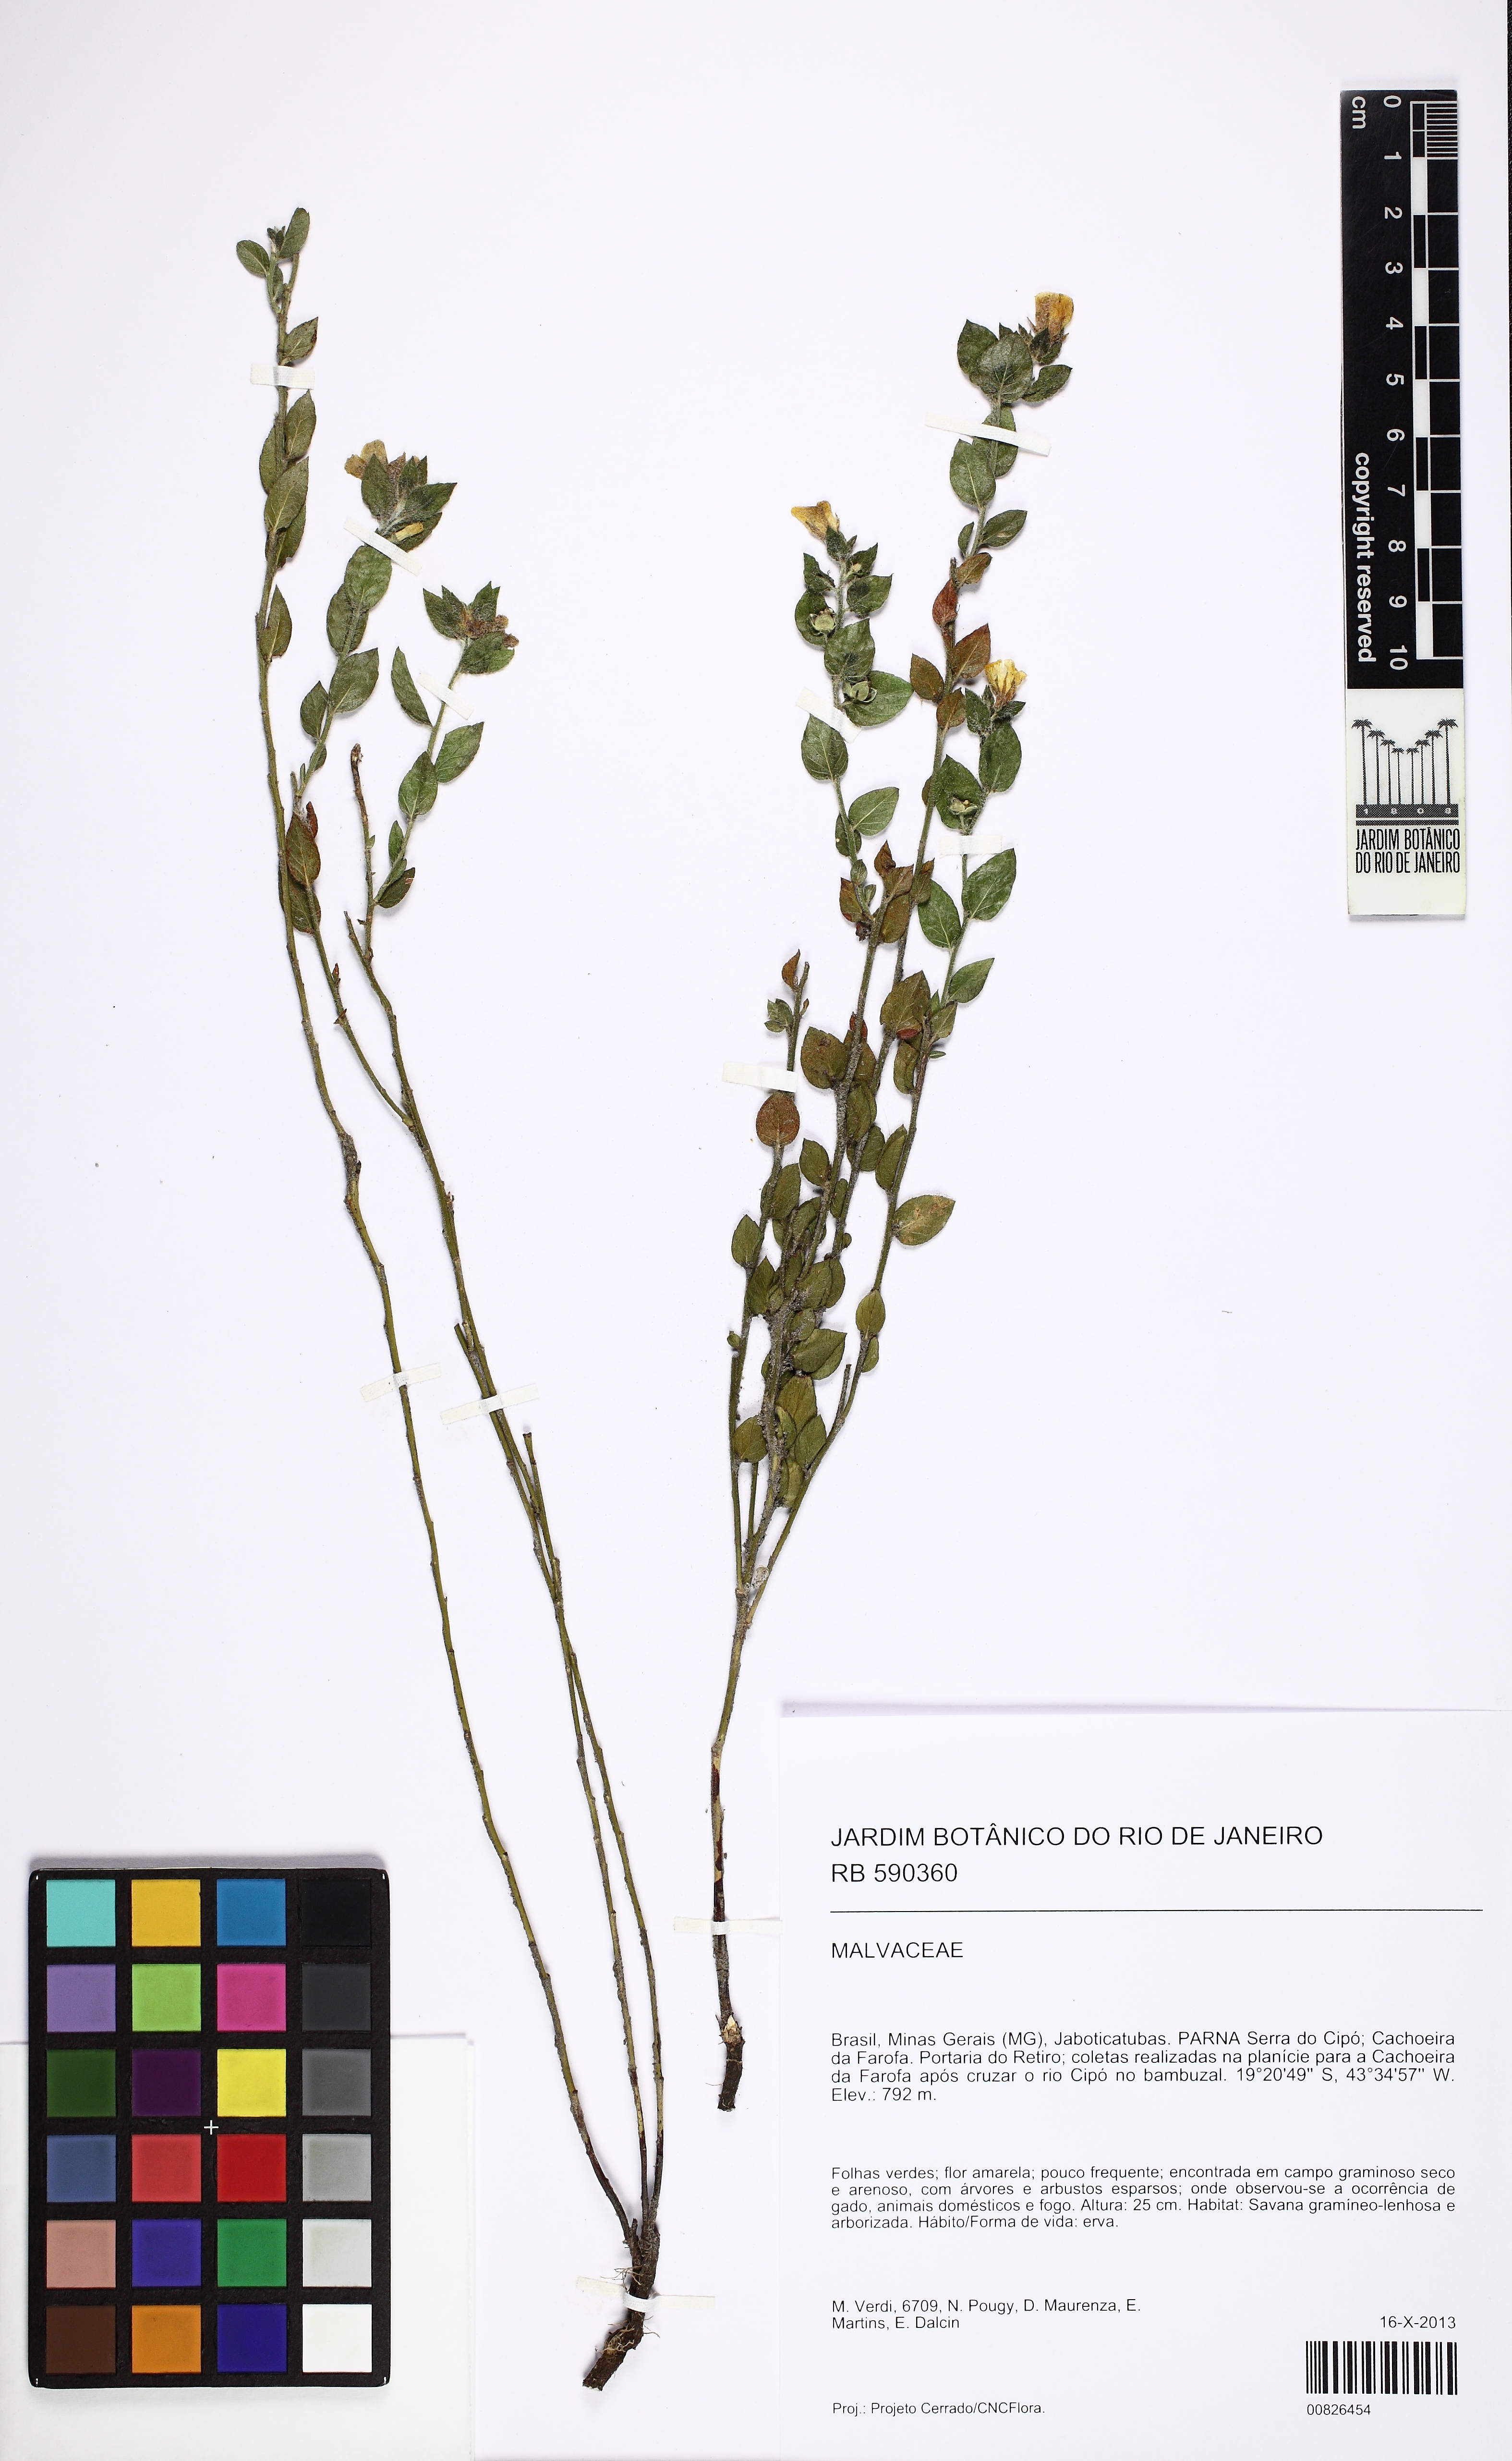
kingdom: Plantae
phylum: Tracheophyta
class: Magnoliopsida
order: Malvales
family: Malvaceae
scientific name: Malvaceae
